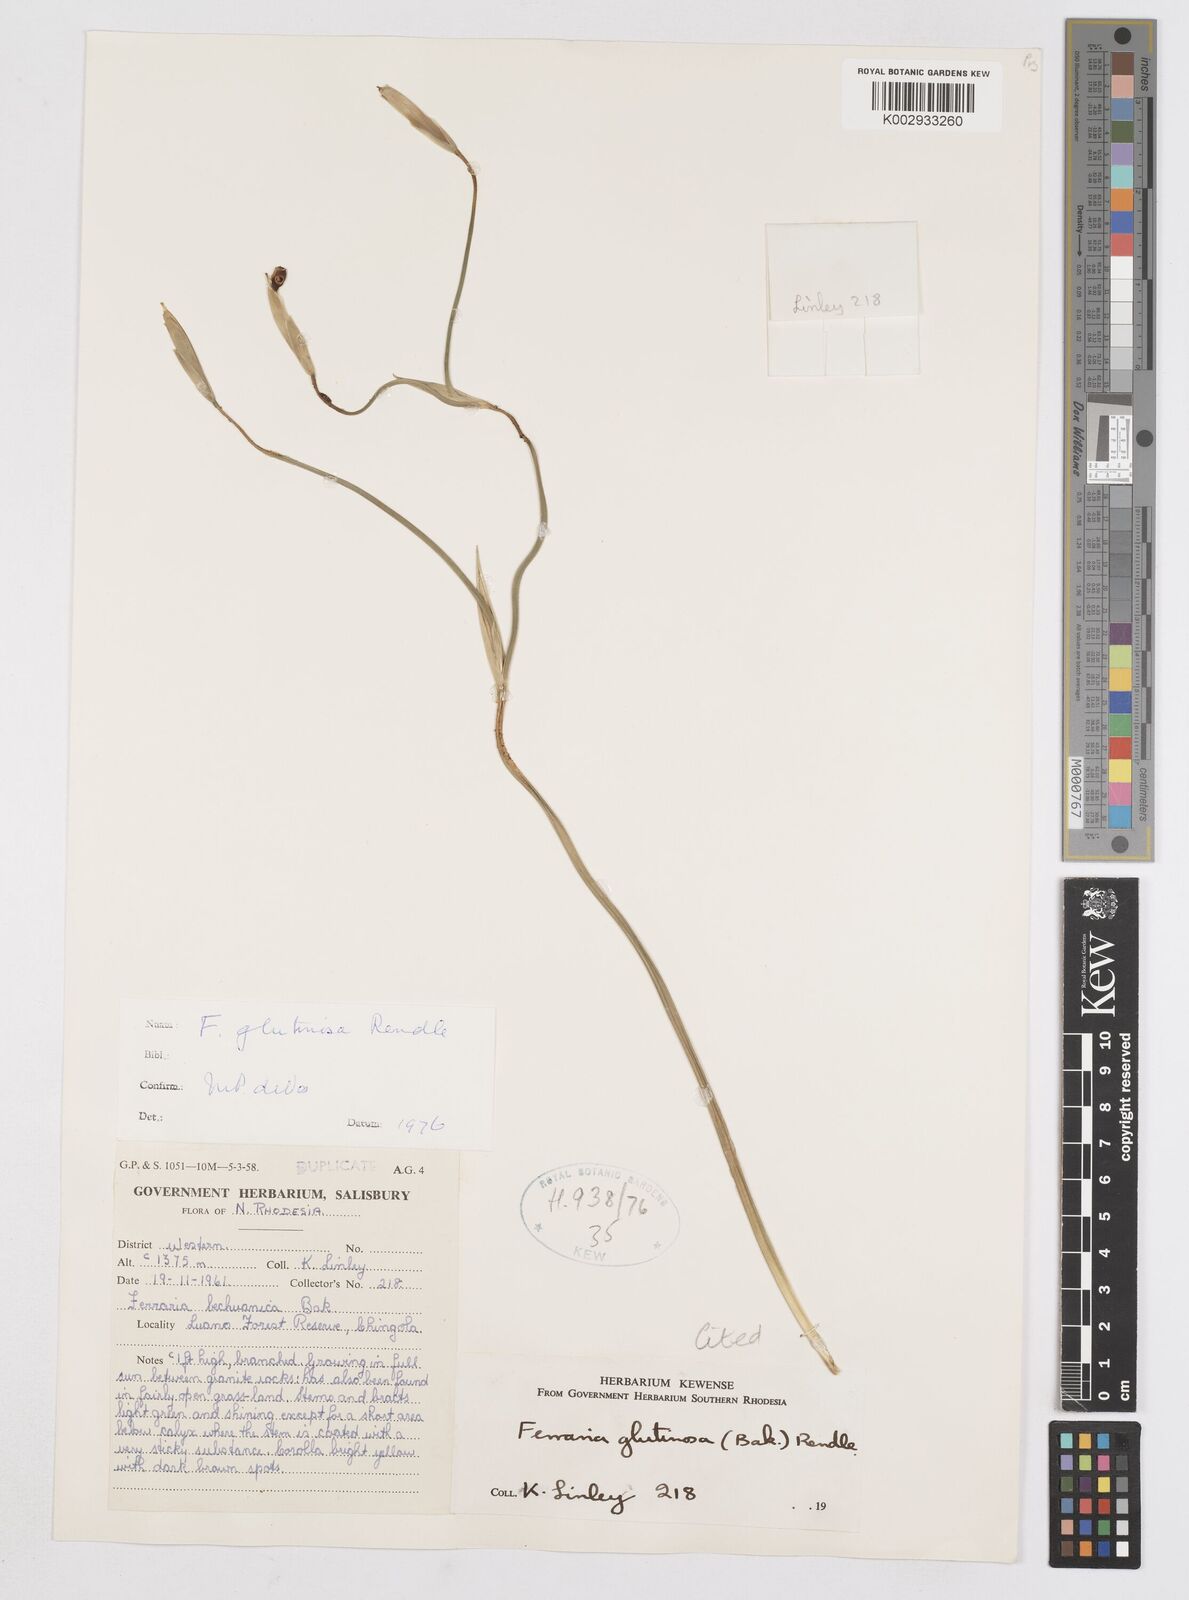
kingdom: Plantae
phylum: Tracheophyta
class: Liliopsida
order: Asparagales
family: Iridaceae
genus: Ferraria
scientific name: Ferraria
